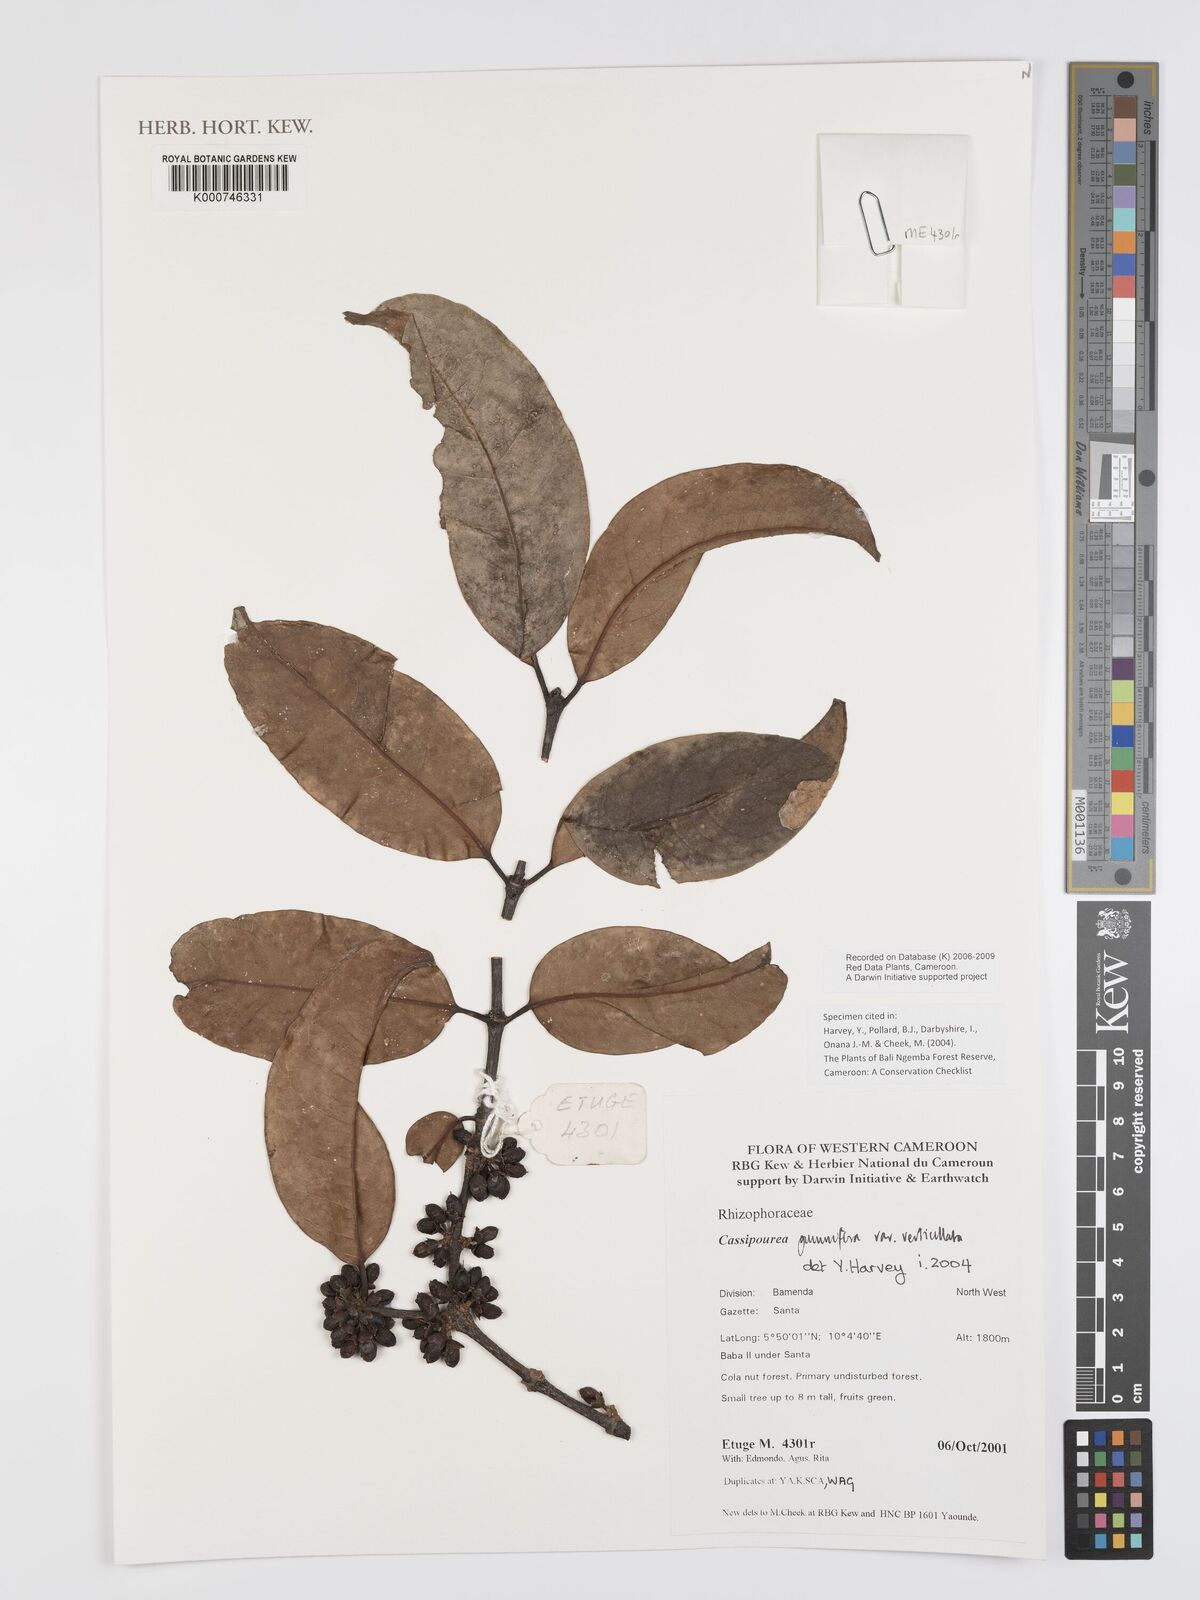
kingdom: Plantae
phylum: Tracheophyta
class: Magnoliopsida
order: Malpighiales
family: Rhizophoraceae
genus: Cassipourea
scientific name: Cassipourea
